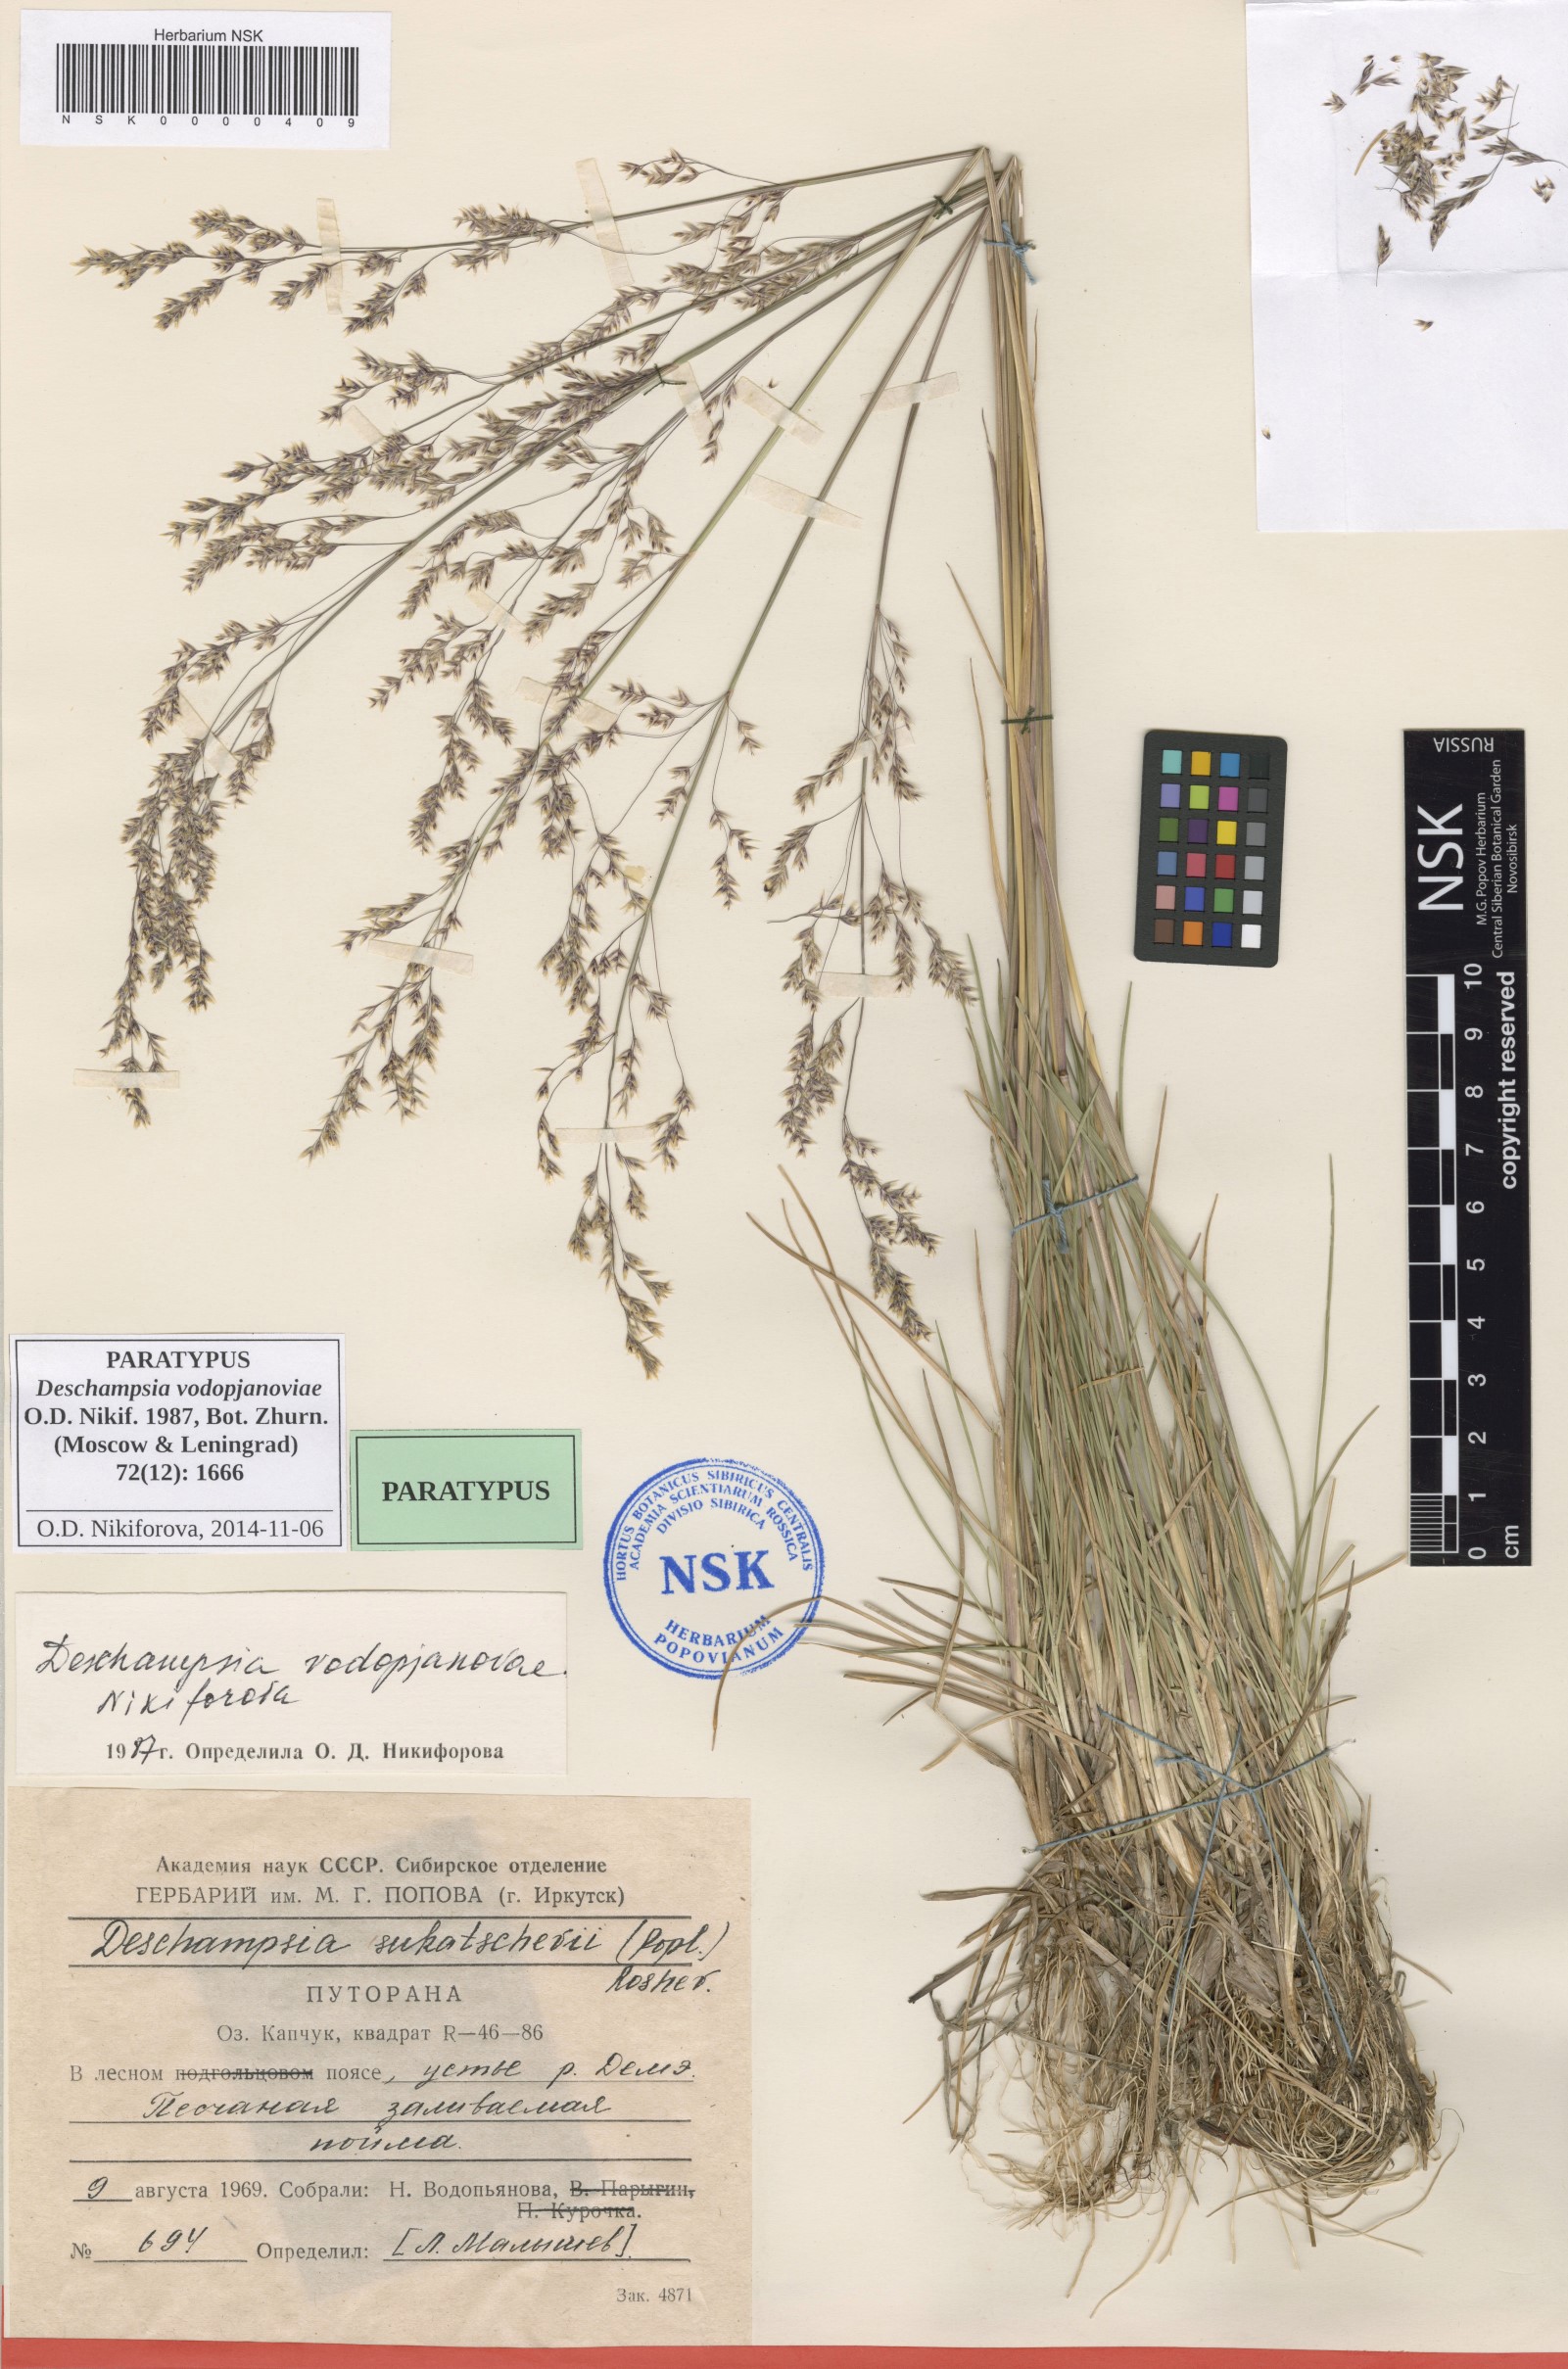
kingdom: Plantae
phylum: Tracheophyta
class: Liliopsida
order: Poales
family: Poaceae
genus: Deschampsia
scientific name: Deschampsia cespitosa
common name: Tufted hair-grass
